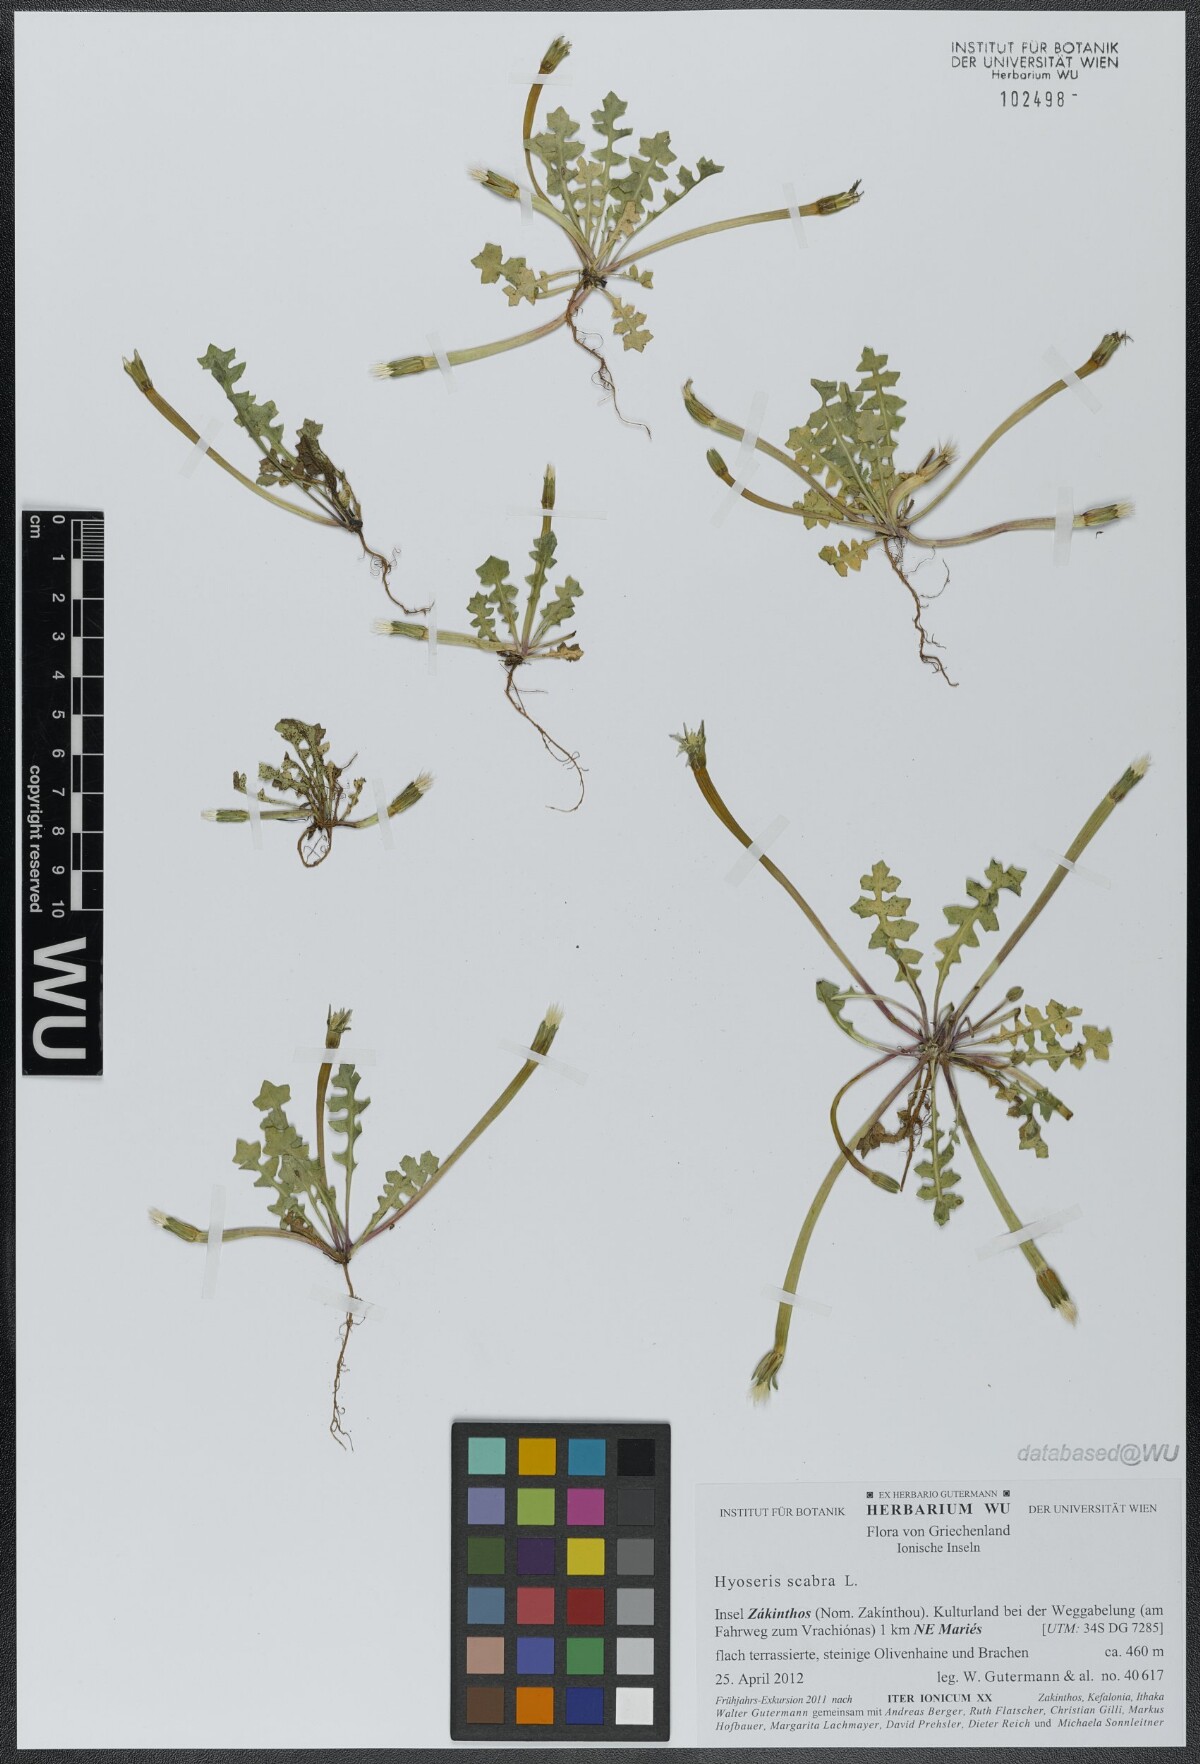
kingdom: Plantae
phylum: Tracheophyta
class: Magnoliopsida
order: Asterales
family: Asteraceae
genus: Hyoseris
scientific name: Hyoseris scabra
